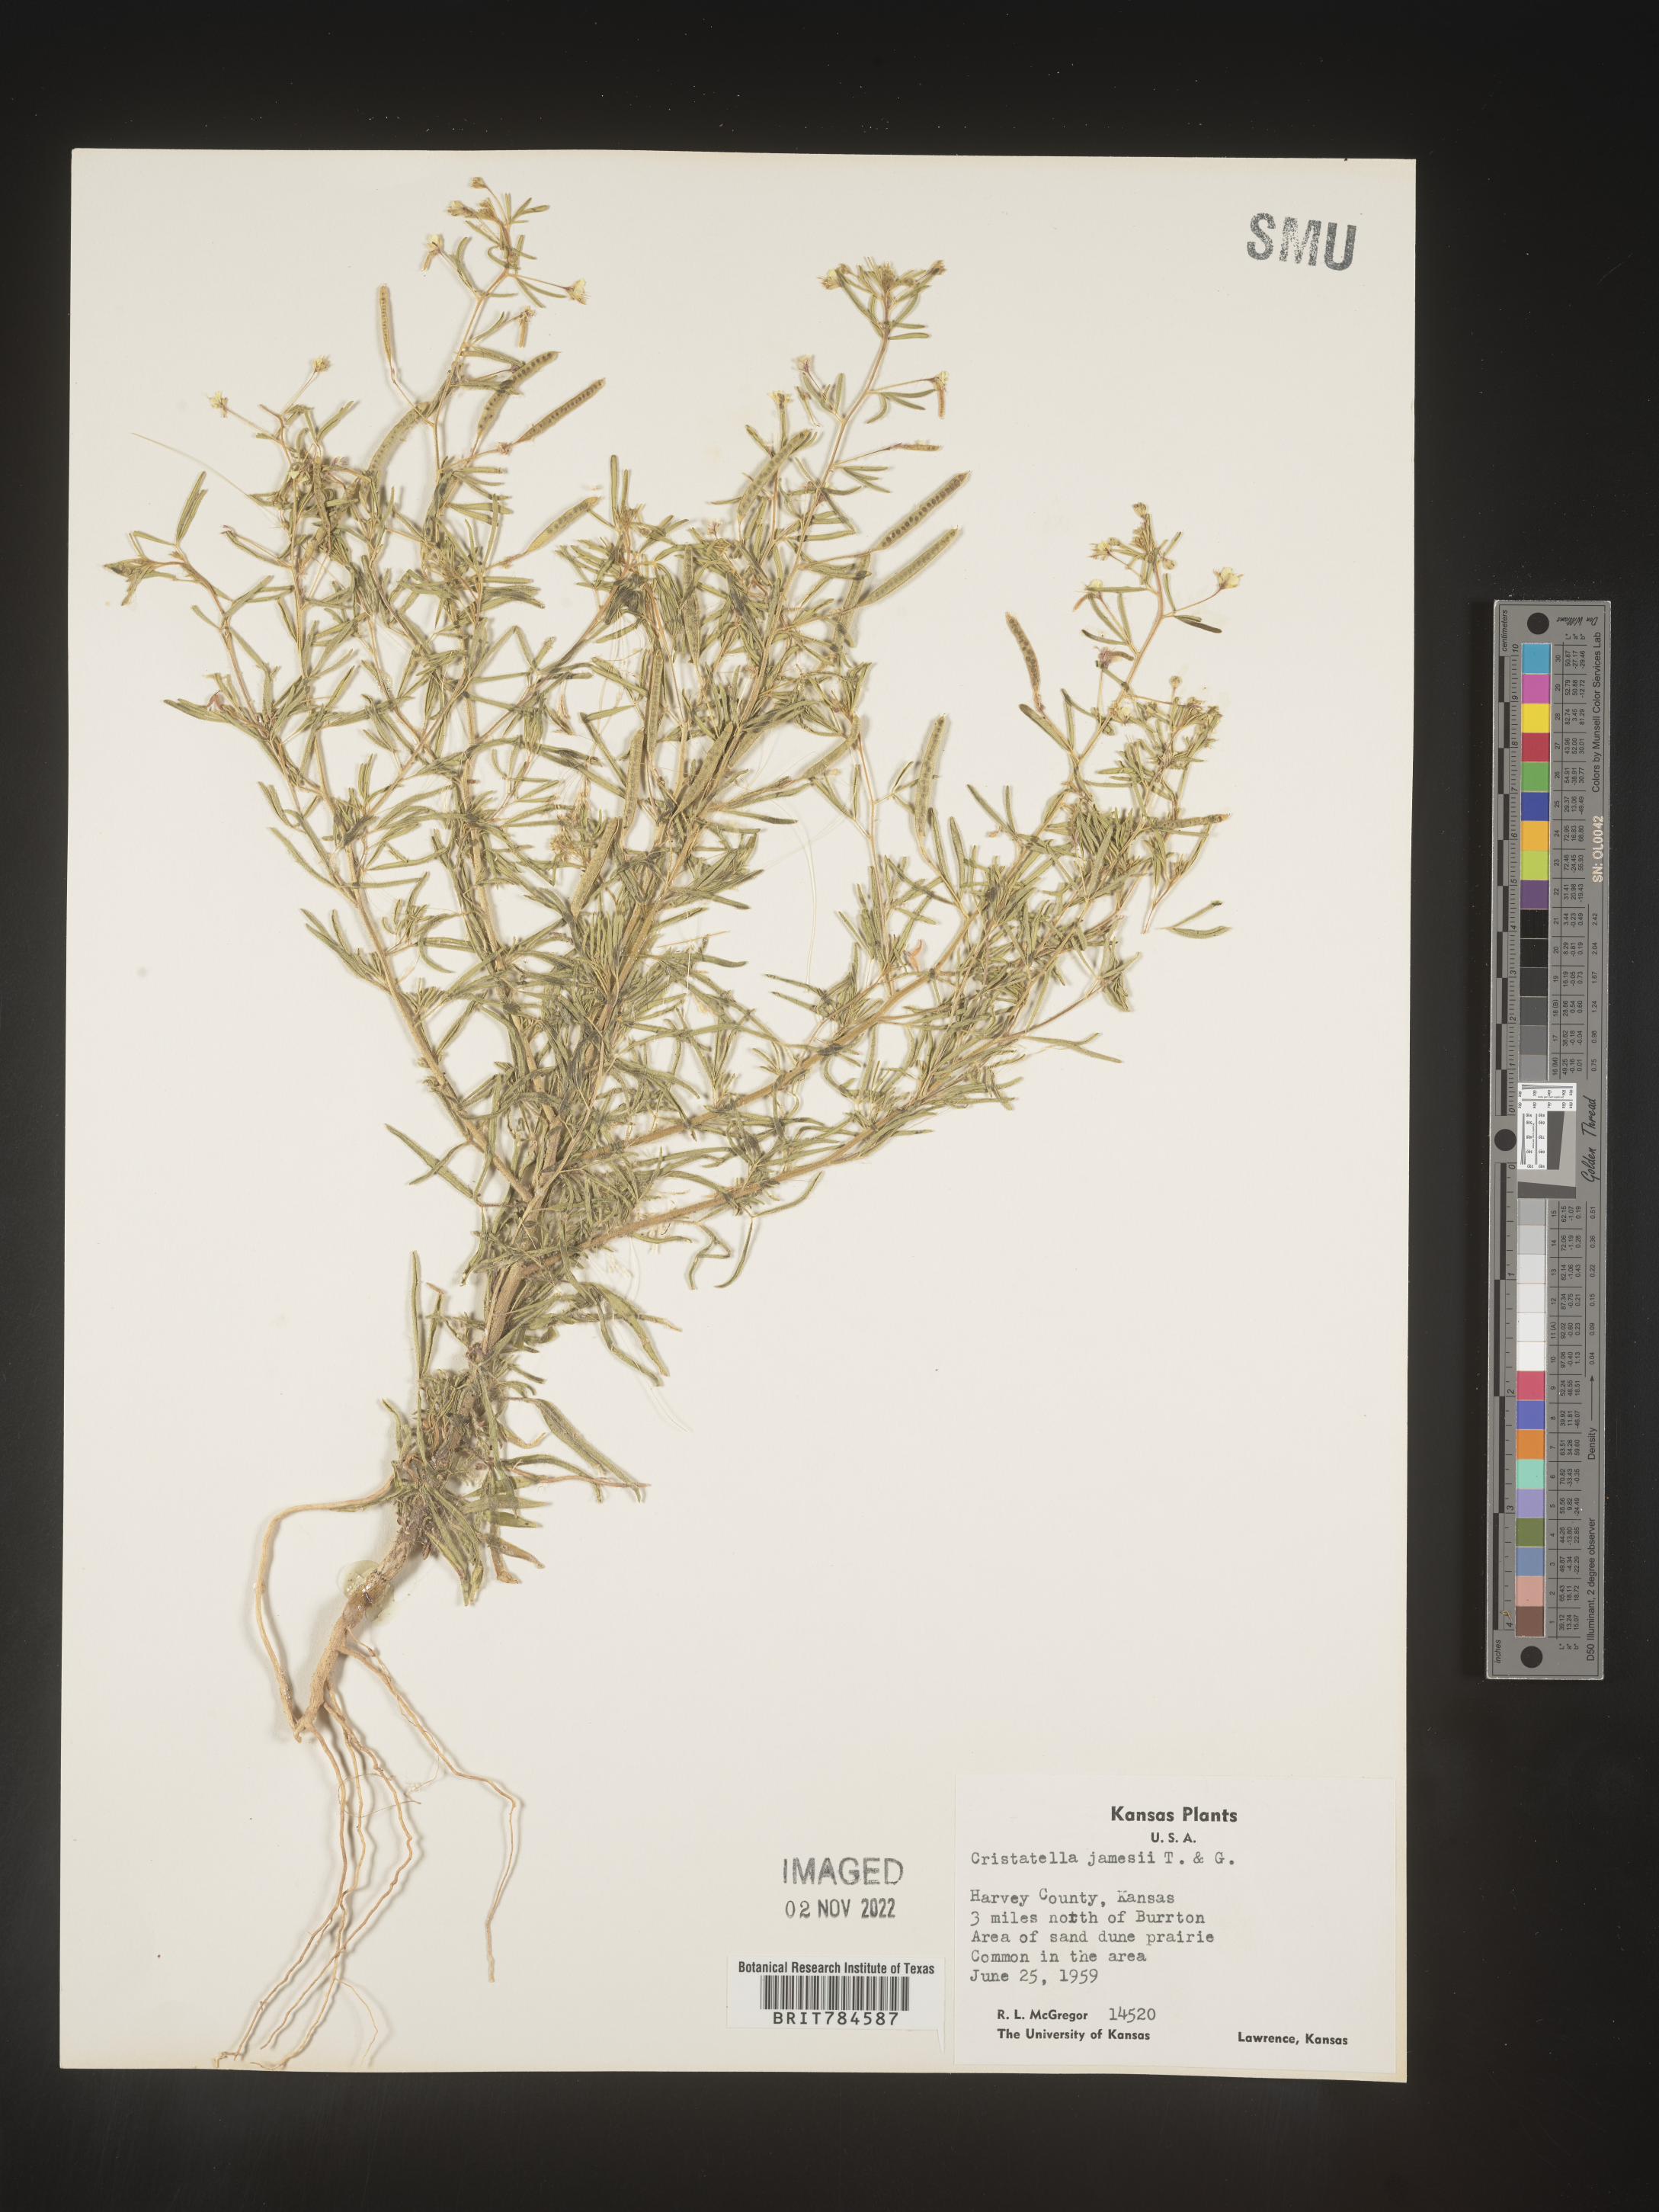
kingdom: Plantae
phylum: Tracheophyta
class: Magnoliopsida
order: Brassicales
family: Cleomaceae
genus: Polanisia
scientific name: Polanisia
